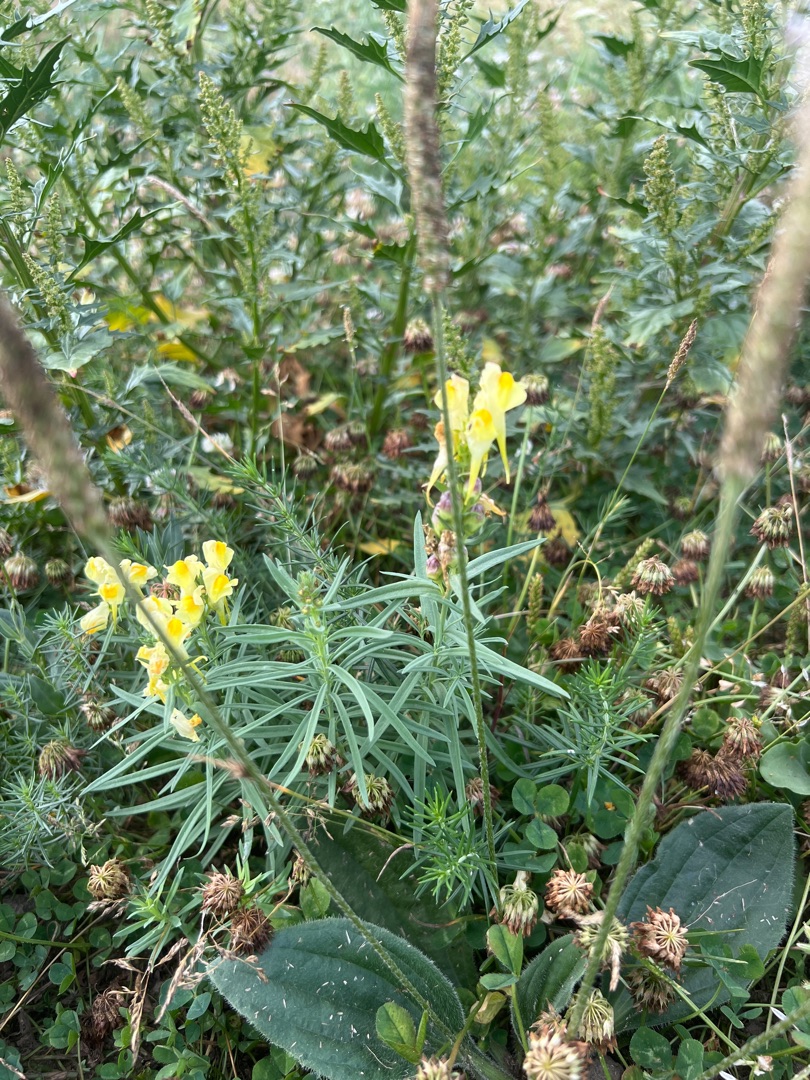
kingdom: Plantae
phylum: Tracheophyta
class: Magnoliopsida
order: Lamiales
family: Plantaginaceae
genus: Linaria
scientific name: Linaria vulgaris
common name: Almindelig torskemund
